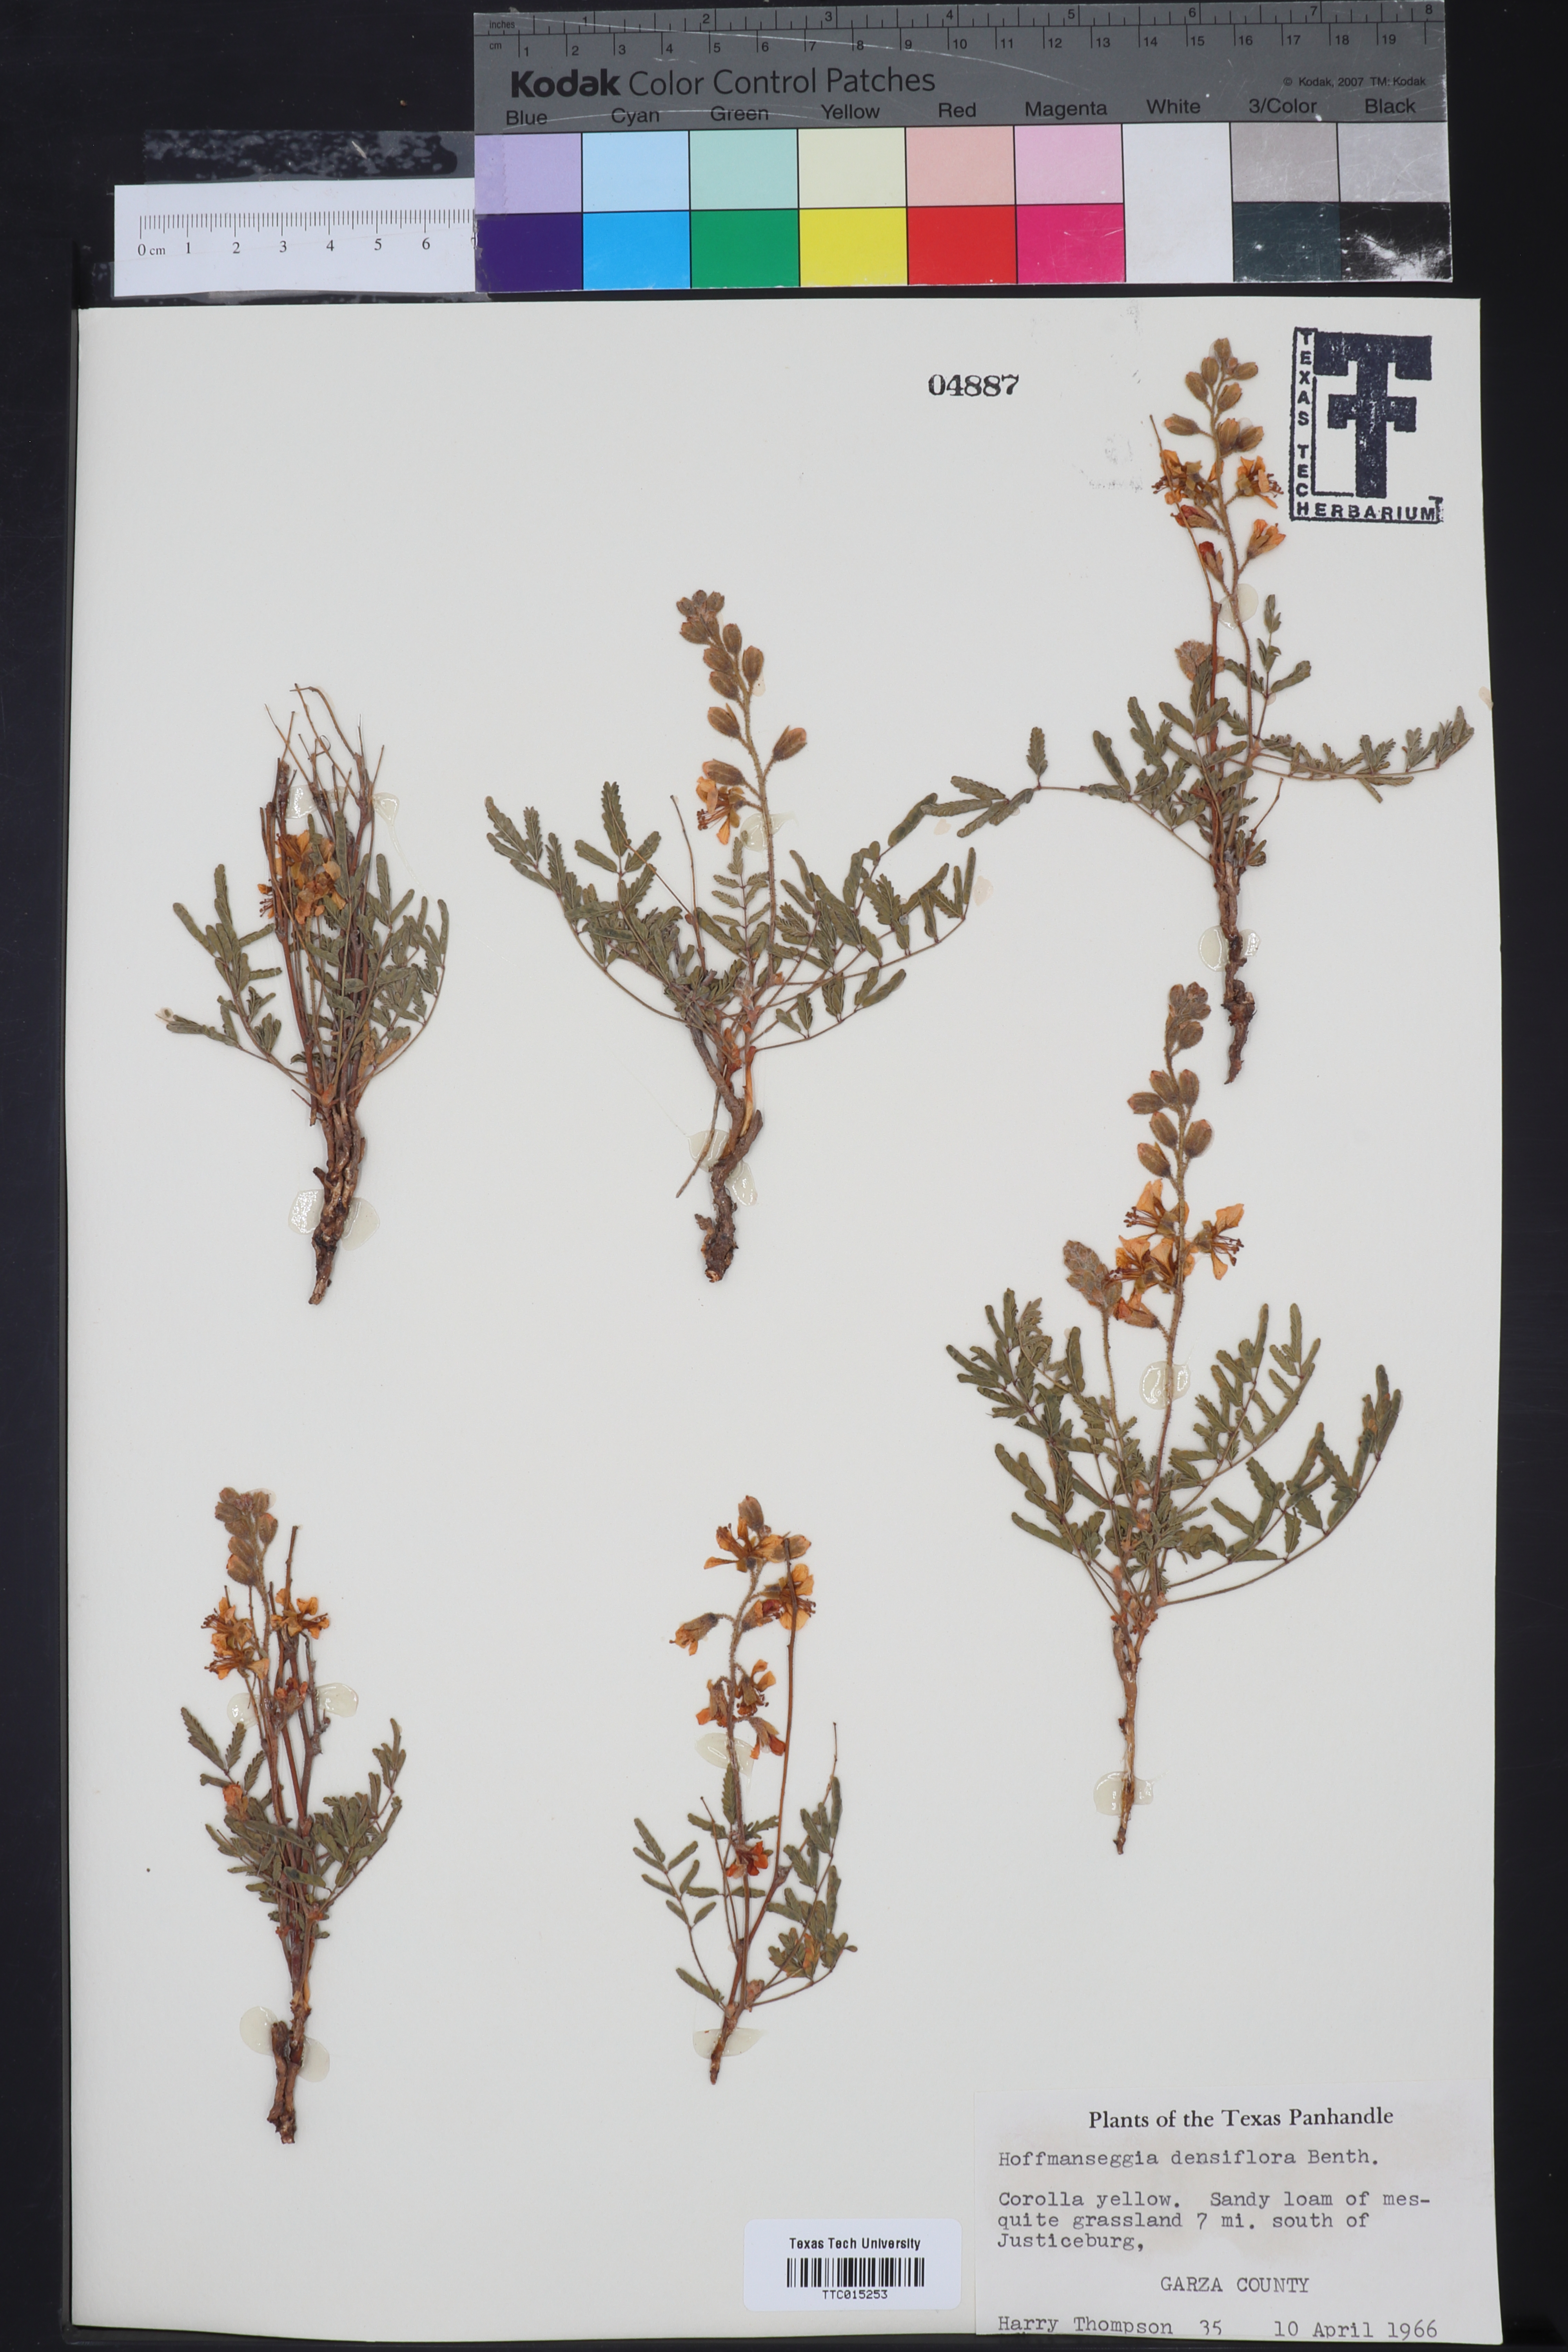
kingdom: Plantae
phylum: Tracheophyta
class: Magnoliopsida
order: Fabales
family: Fabaceae
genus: Hoffmannseggia
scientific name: Hoffmannseggia glauca
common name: Pignut
